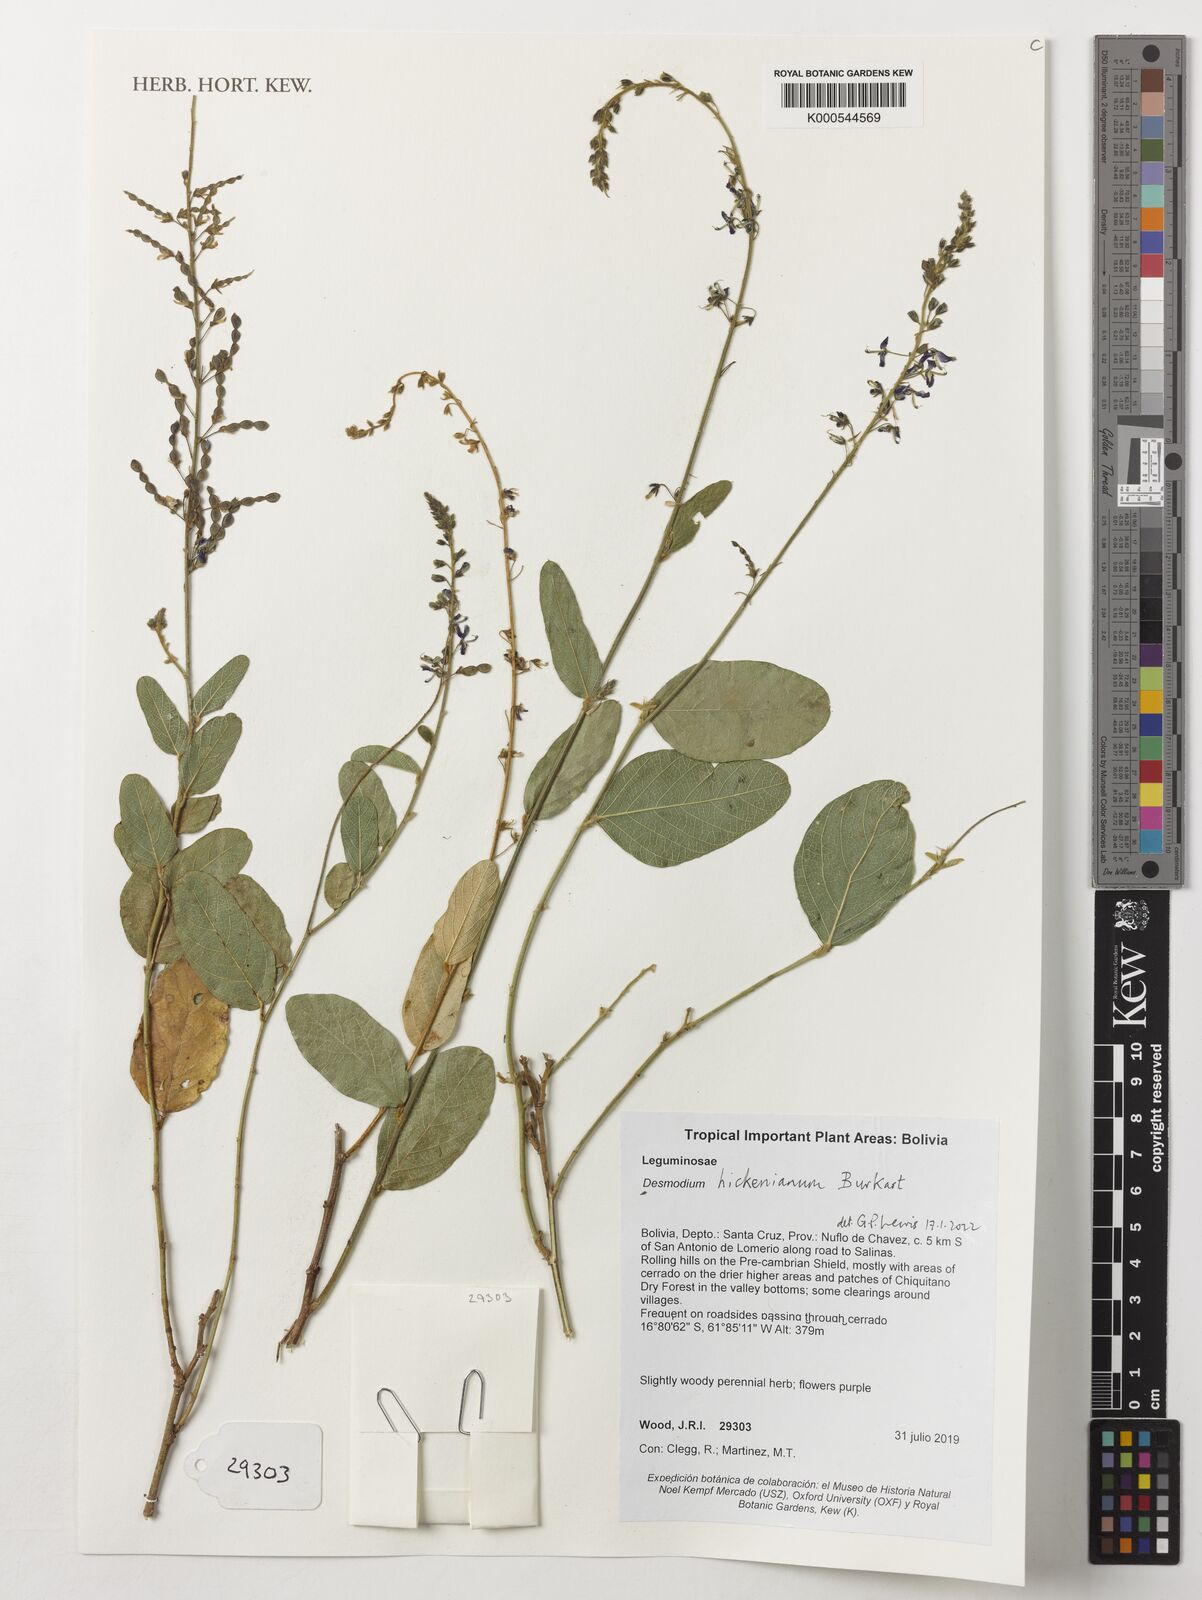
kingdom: Plantae
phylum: Tracheophyta
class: Magnoliopsida
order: Fabales
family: Fabaceae
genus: Desmodium
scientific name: Desmodium microcarpum
